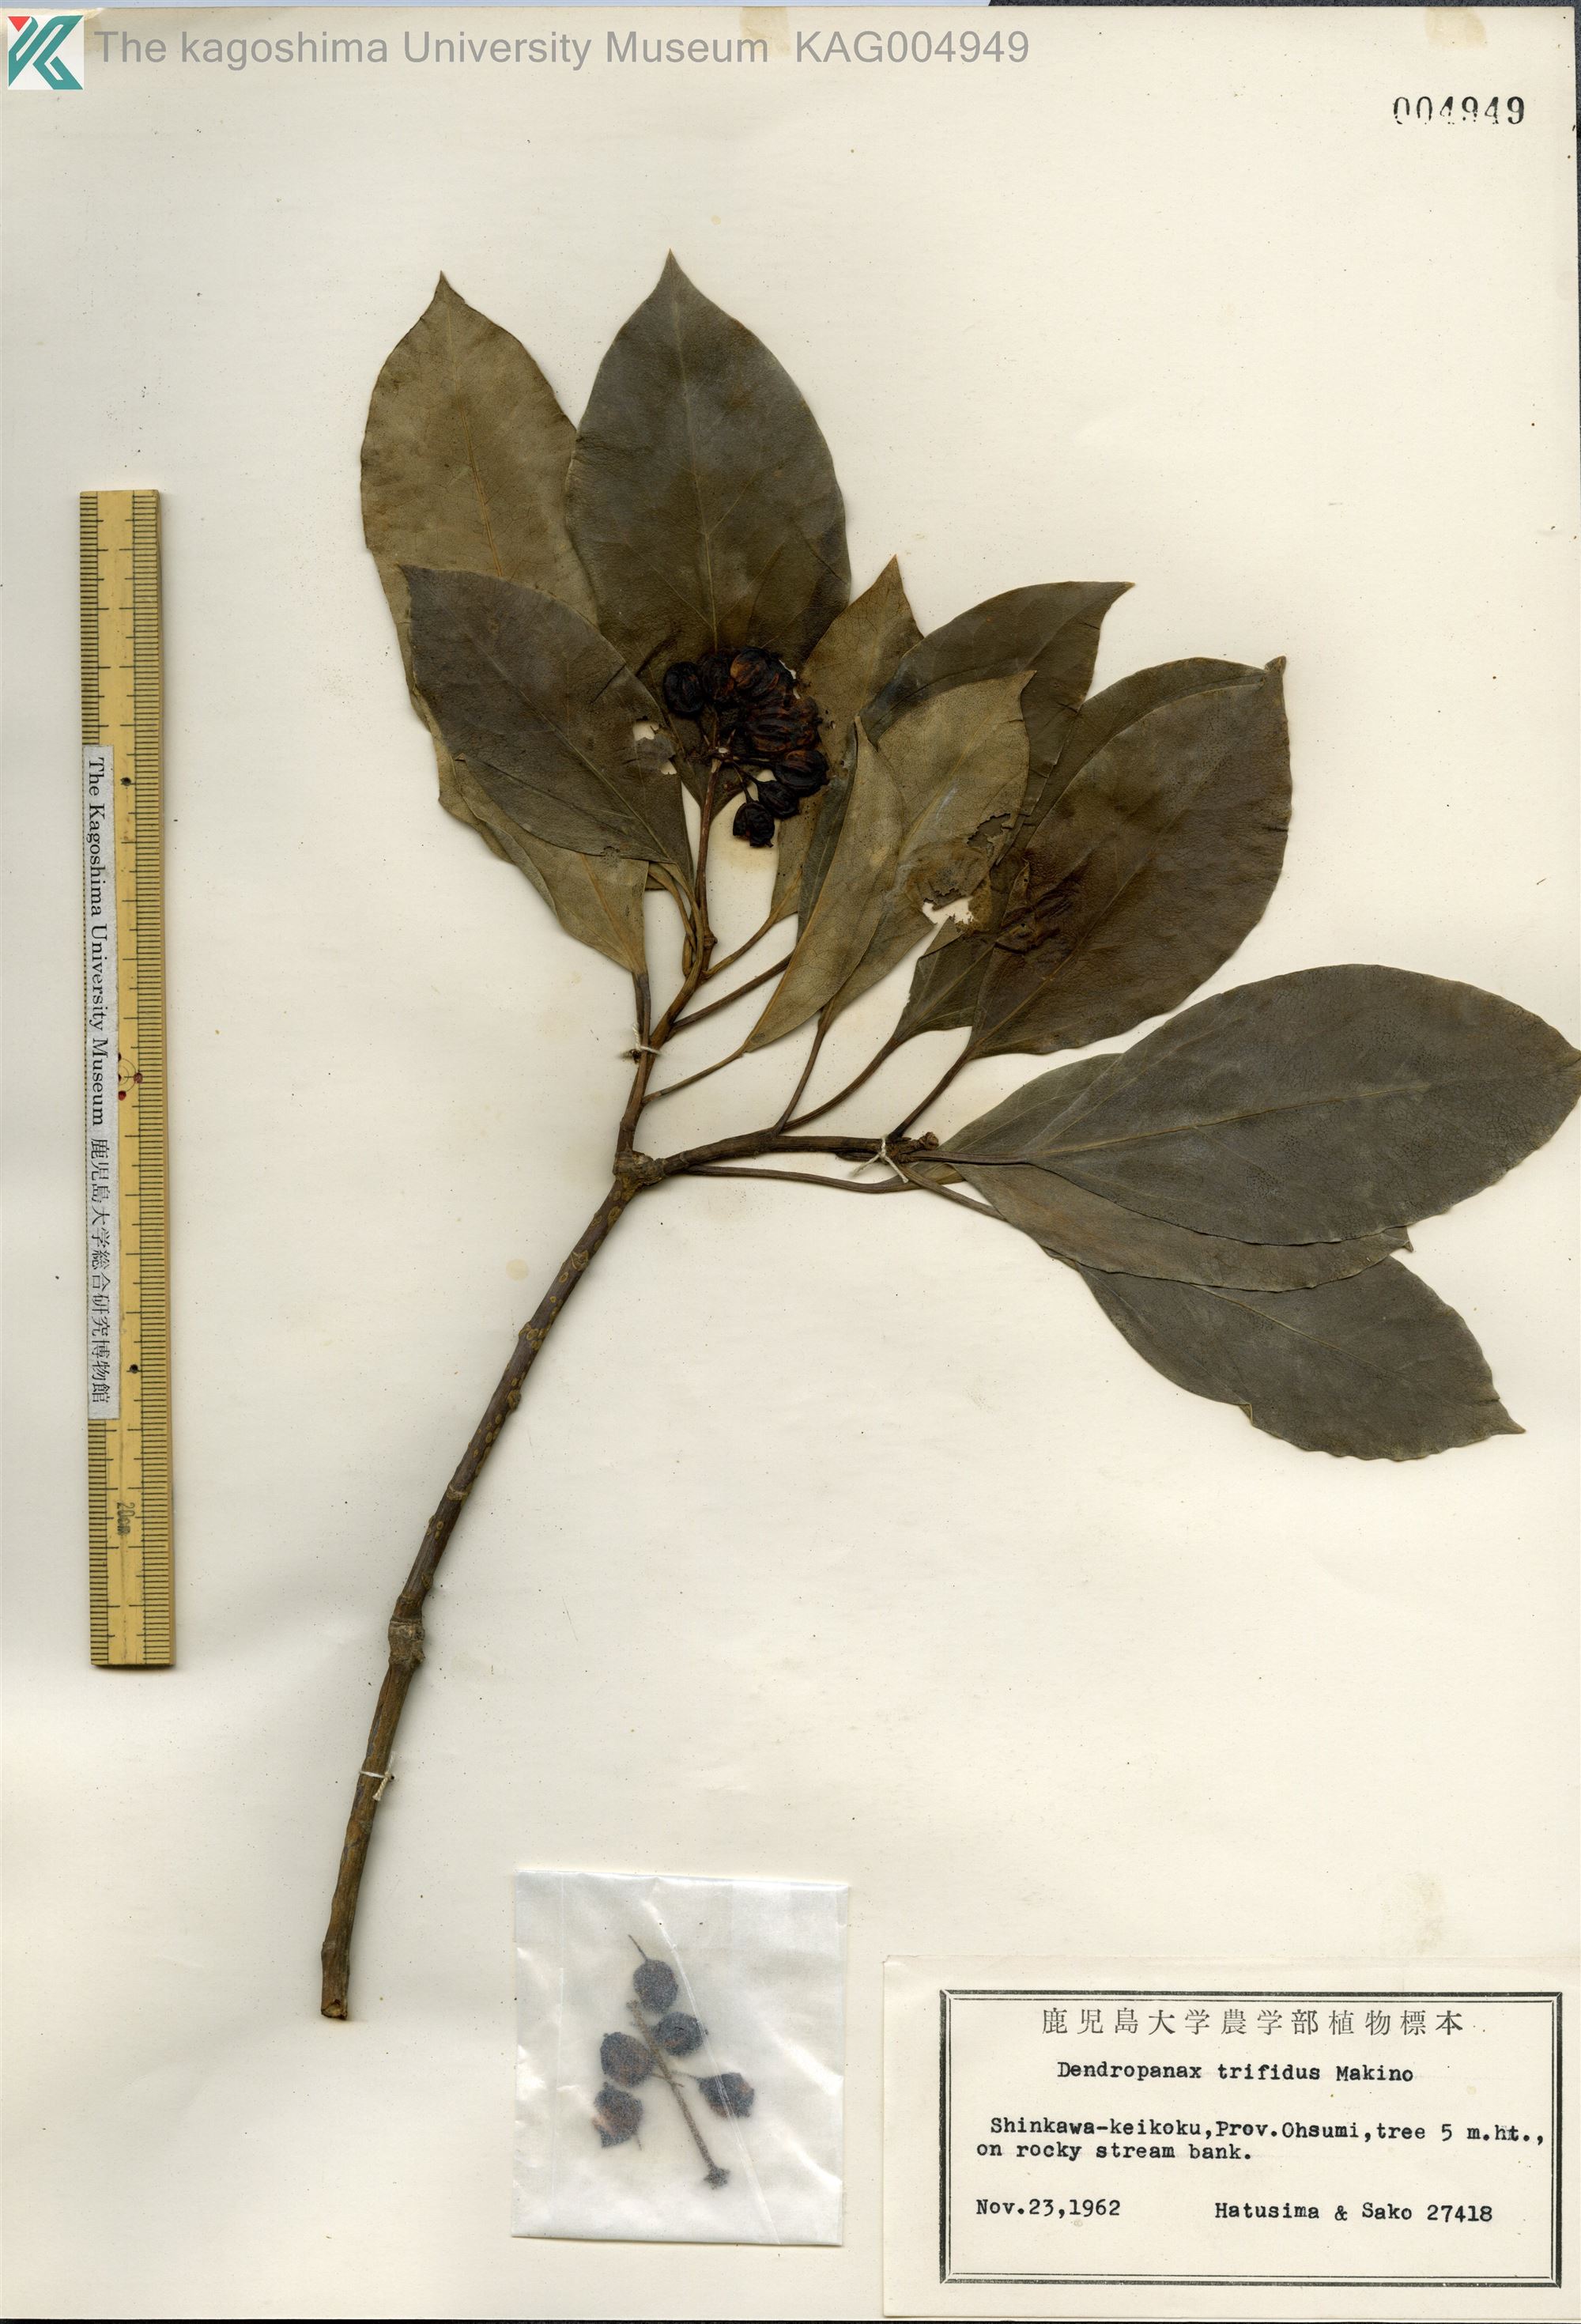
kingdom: Plantae
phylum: Tracheophyta
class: Magnoliopsida
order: Apiales
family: Araliaceae
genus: Dendropanax
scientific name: Dendropanax trifidus
